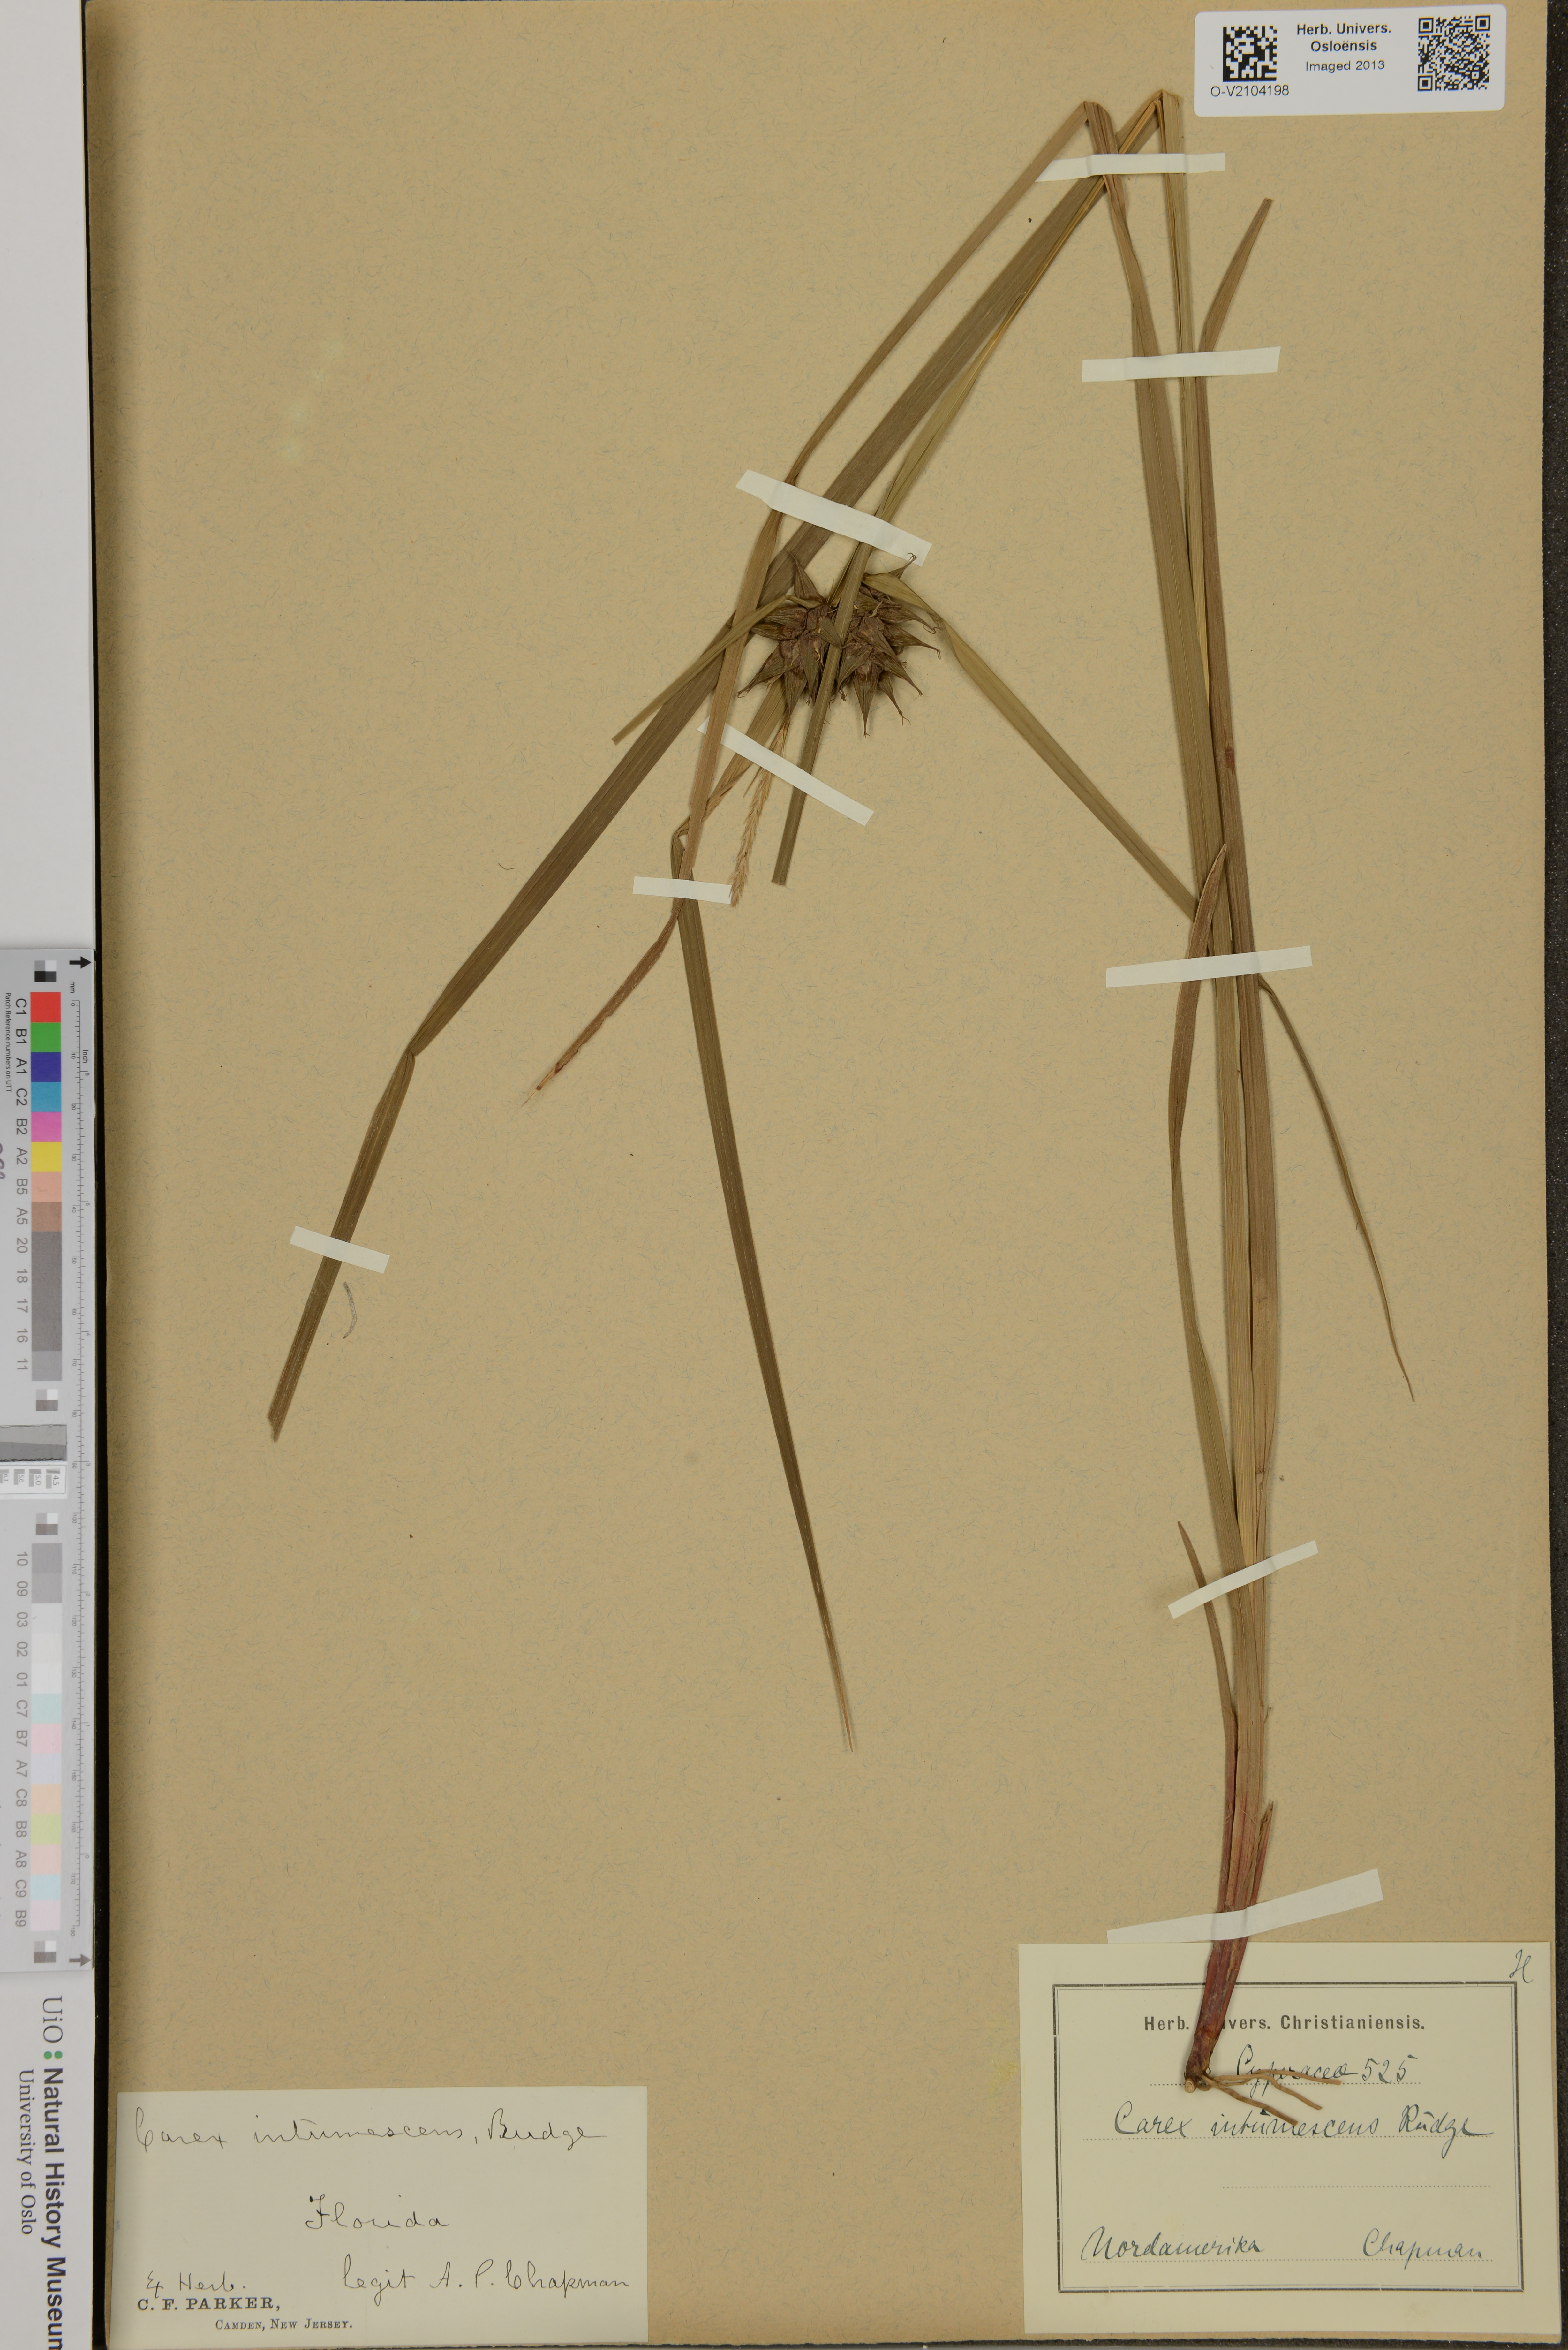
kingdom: Plantae
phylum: Tracheophyta
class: Liliopsida
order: Poales
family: Cyperaceae
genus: Carex
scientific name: Carex intumescens
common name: Greater bladder sedge
